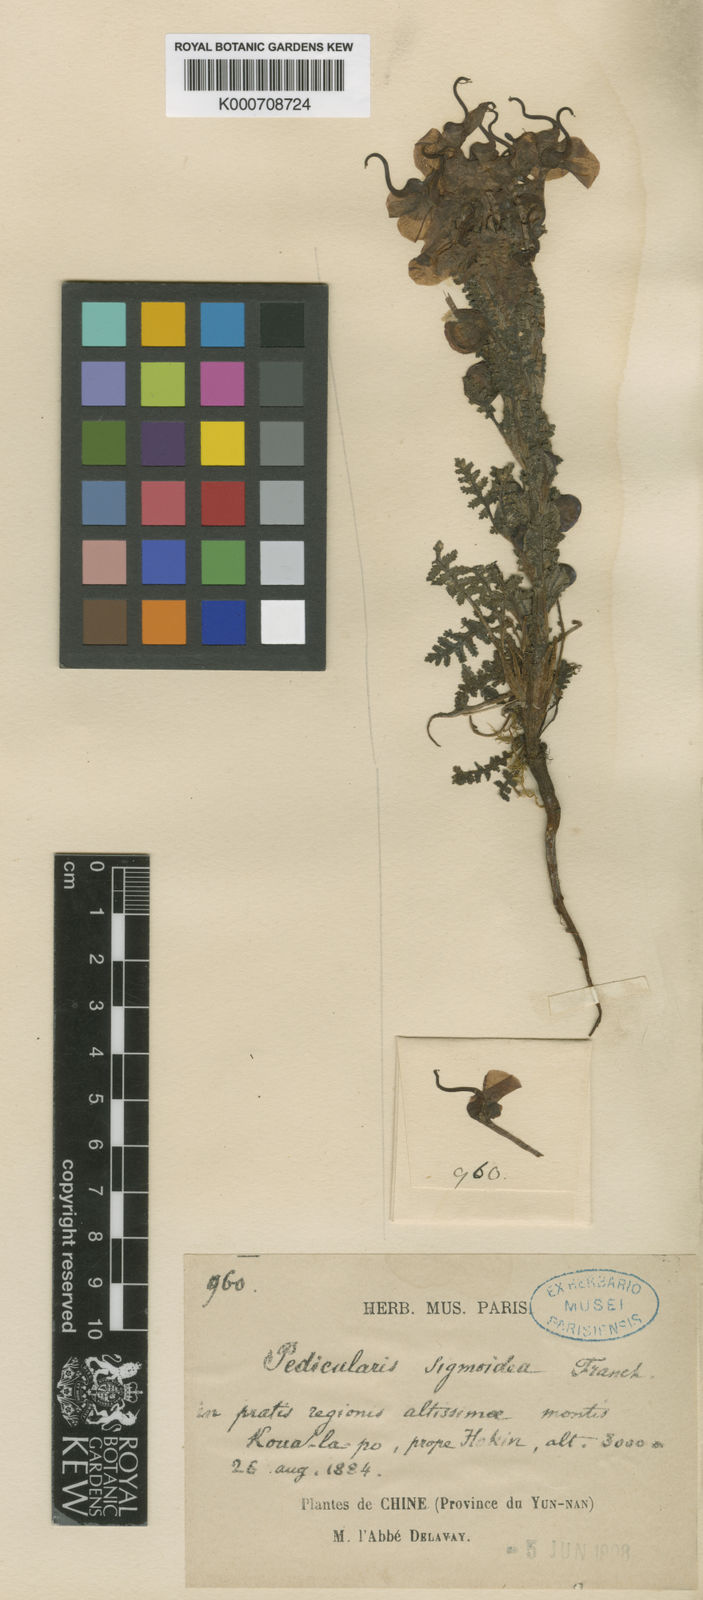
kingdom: Plantae
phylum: Tracheophyta
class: Magnoliopsida
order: Lamiales
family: Orobanchaceae
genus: Pedicularis
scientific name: Pedicularis sigmoidea
